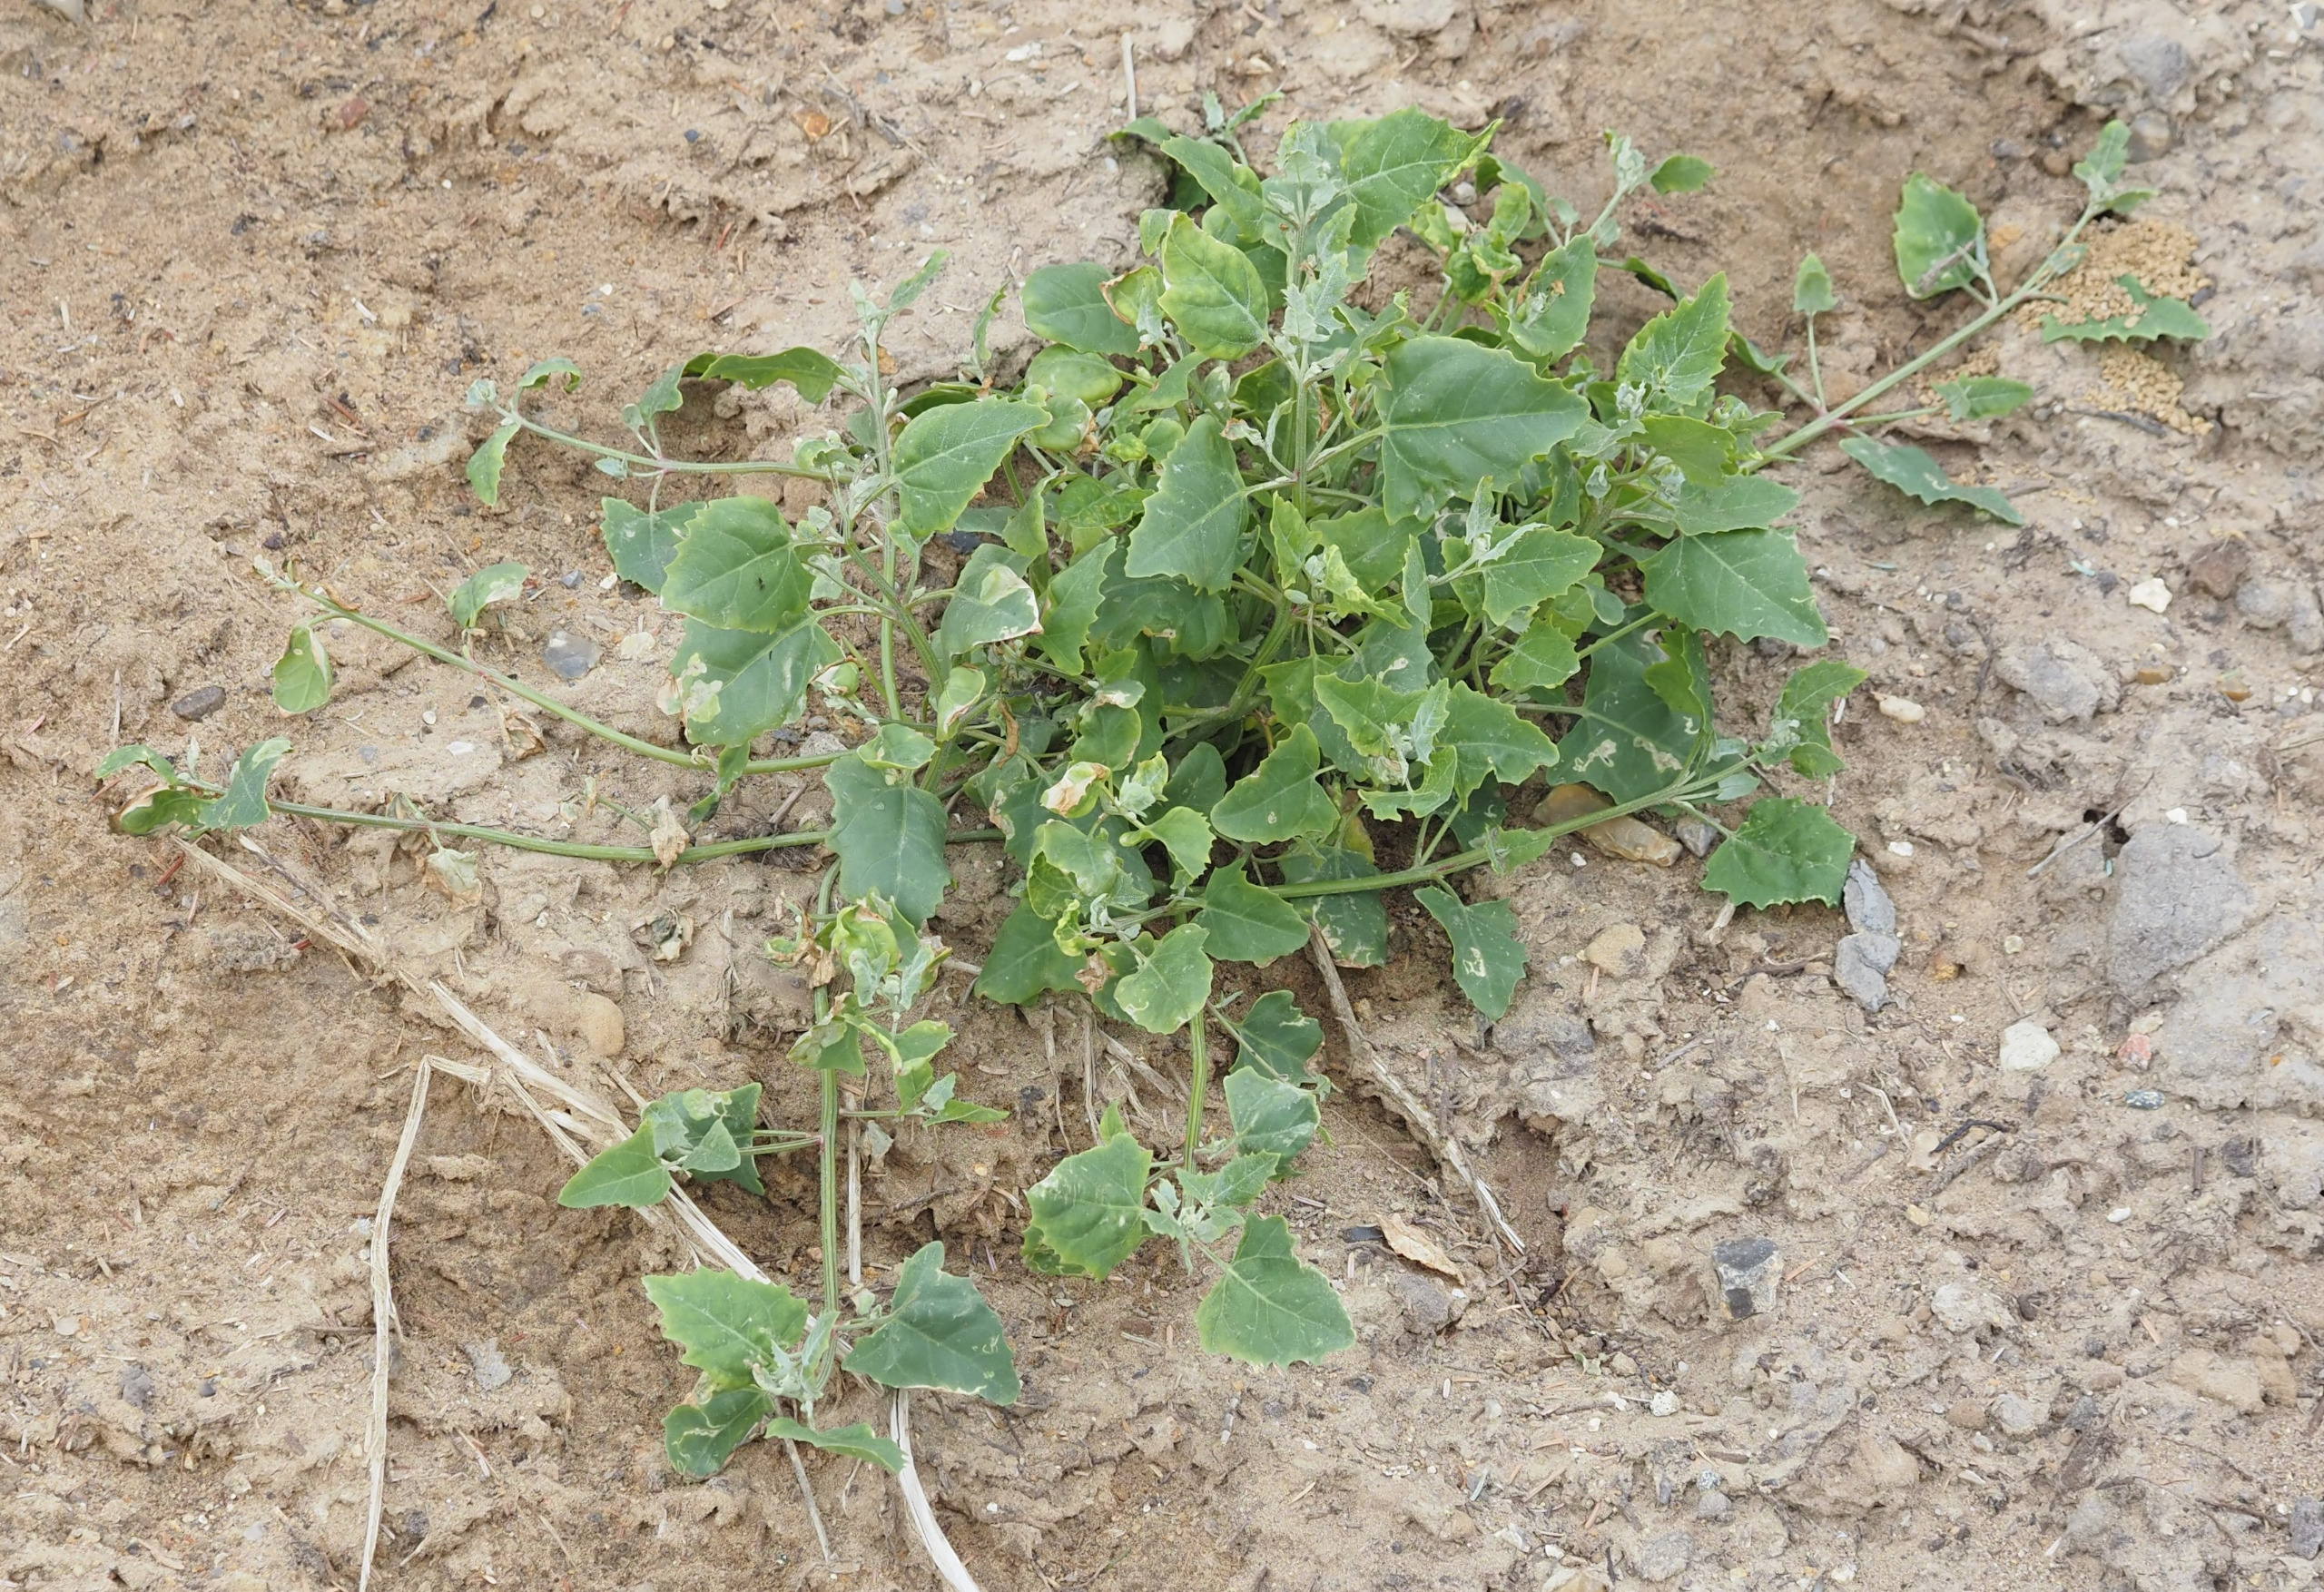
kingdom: Plantae
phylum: Tracheophyta
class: Magnoliopsida
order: Caryophyllales
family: Amaranthaceae
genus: Atriplex
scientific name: Atriplex prostrata
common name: Spyd-mælde
